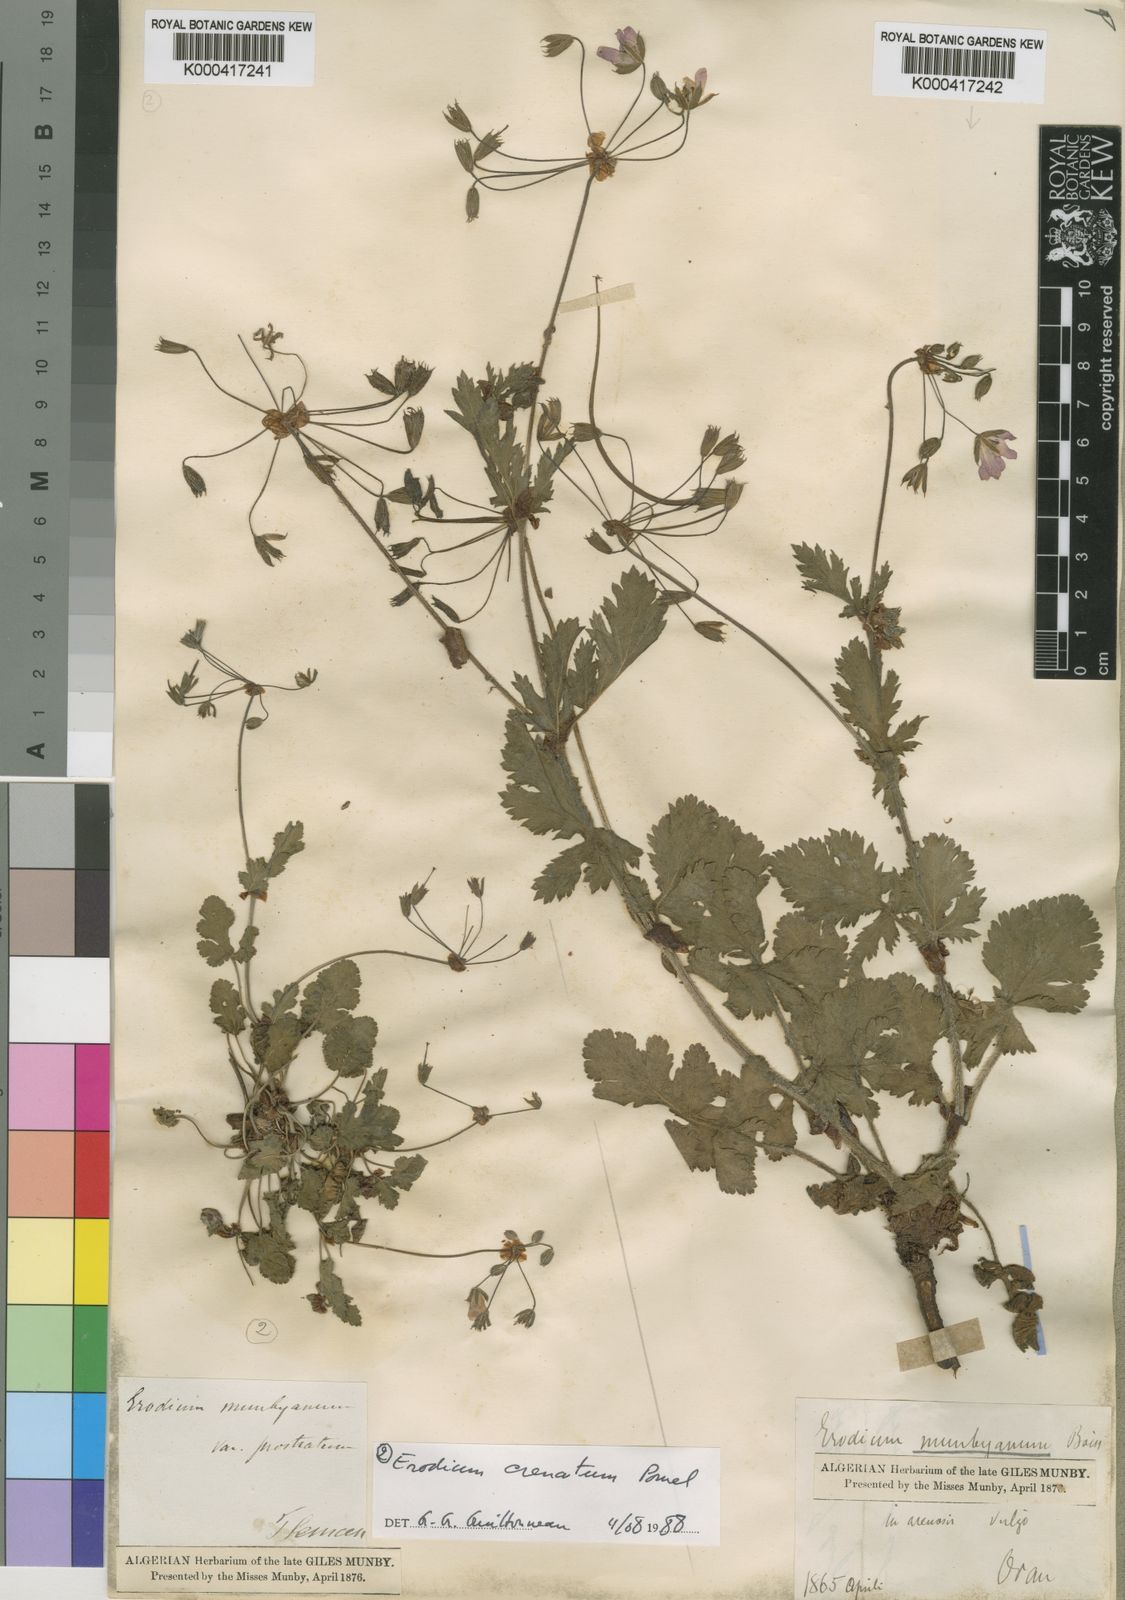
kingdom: Plantae
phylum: Tracheophyta
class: Magnoliopsida
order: Geraniales
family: Geraniaceae
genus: Erodium
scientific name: Erodium munbyanum
